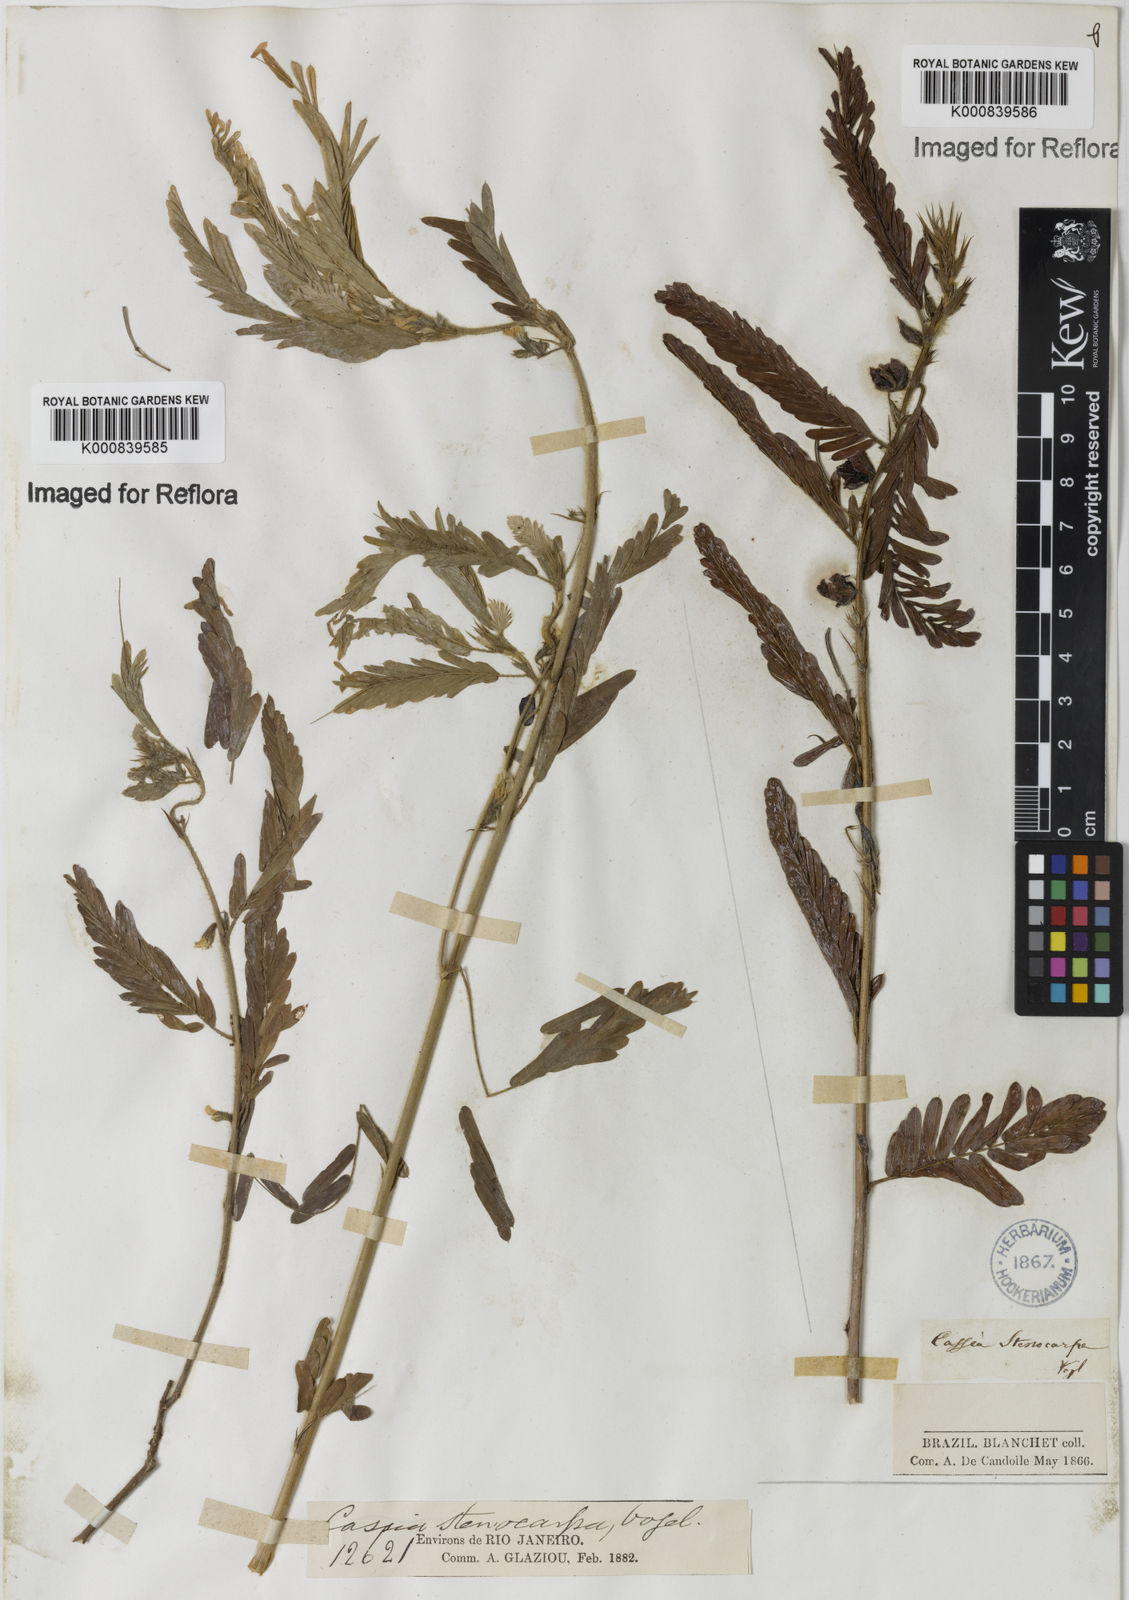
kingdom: Plantae
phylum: Tracheophyta
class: Magnoliopsida
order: Fabales
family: Fabaceae
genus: Chamaecrista
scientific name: Chamaecrista nictitans
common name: Sensitive cassia
